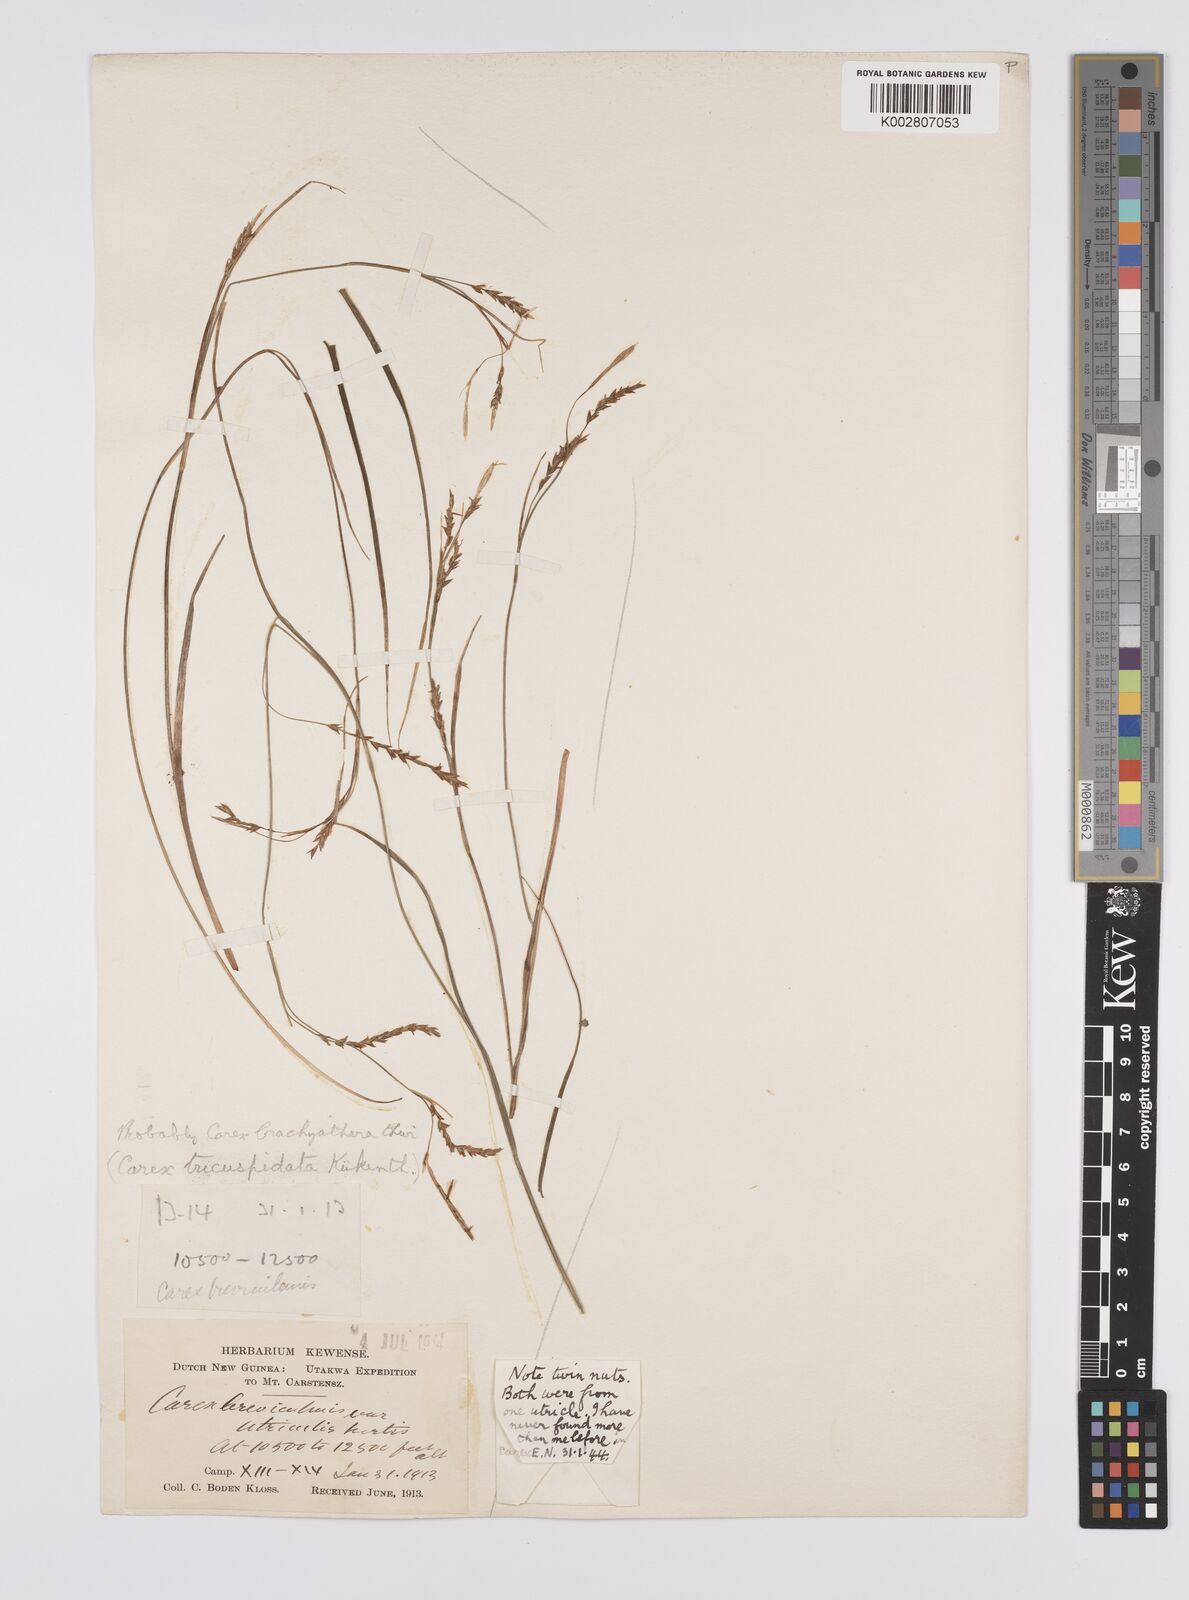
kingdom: Plantae
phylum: Tracheophyta
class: Liliopsida
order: Poales
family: Cyperaceae
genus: Carex
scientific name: Carex brachyanthera
